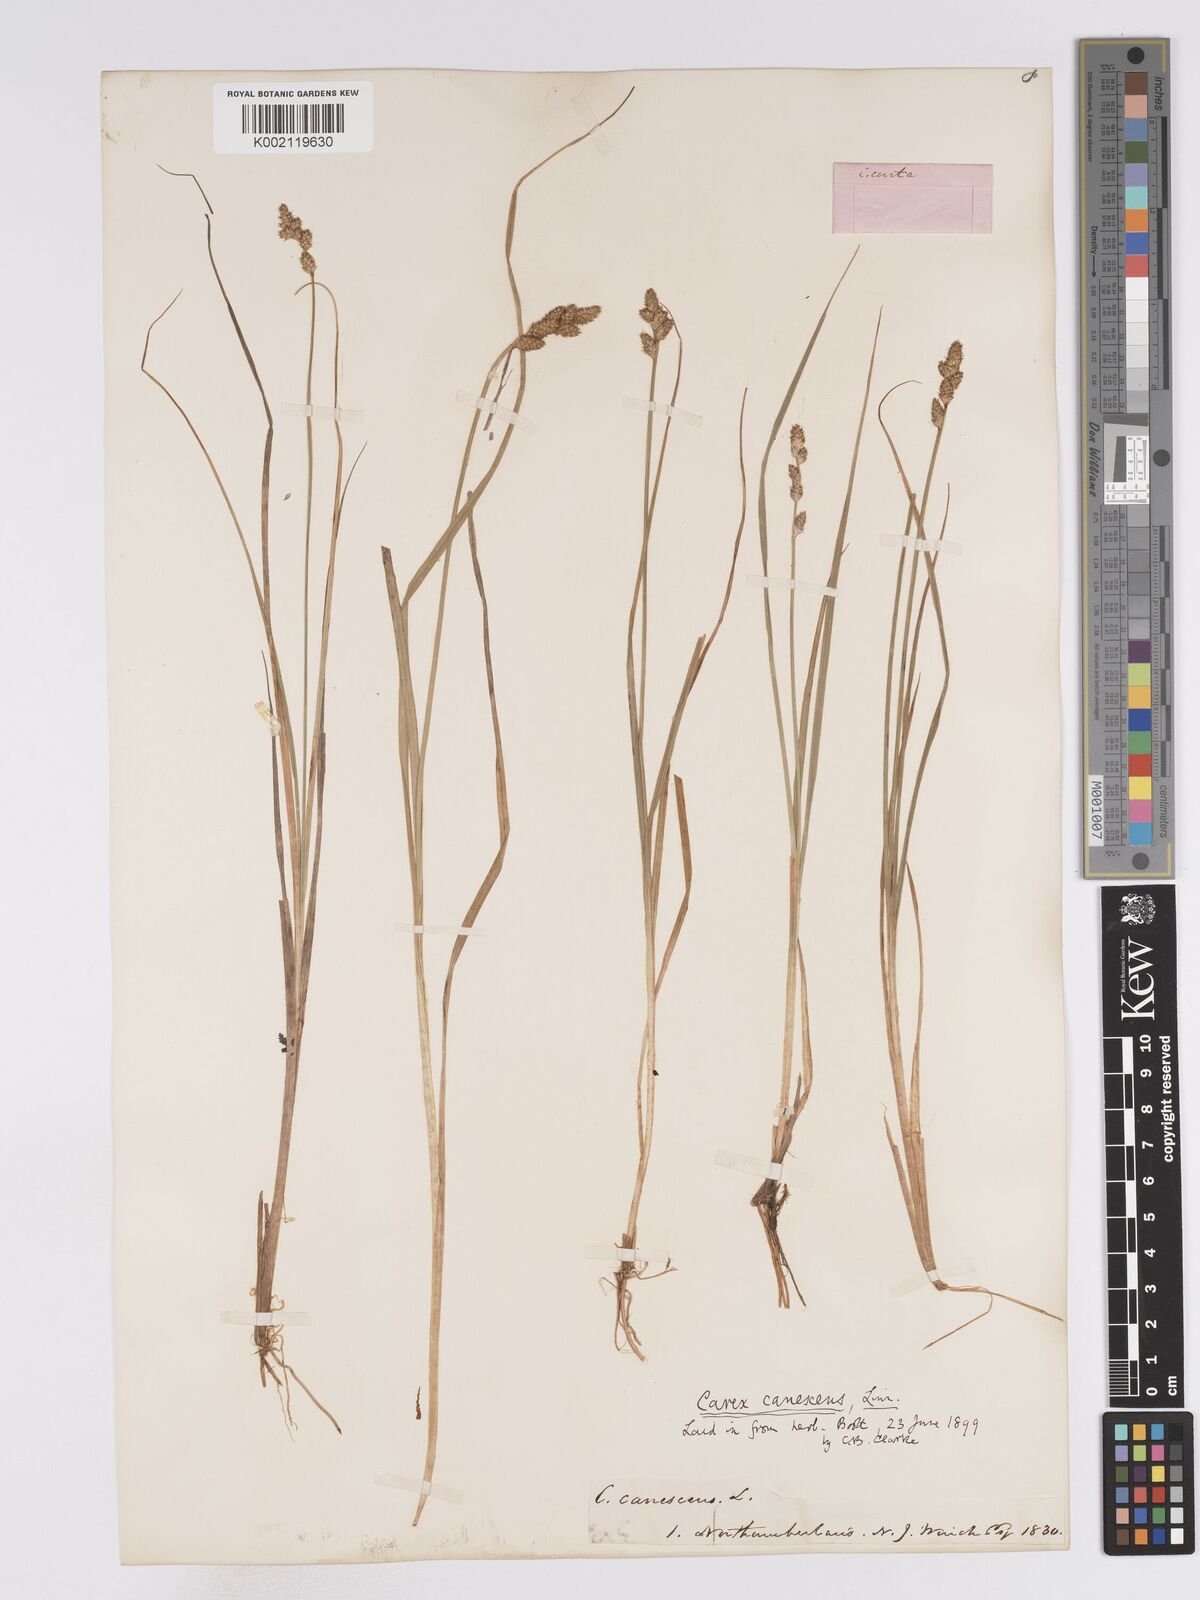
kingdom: Plantae
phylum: Tracheophyta
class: Liliopsida
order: Poales
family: Cyperaceae
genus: Carex
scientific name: Carex curta
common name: White sedge
